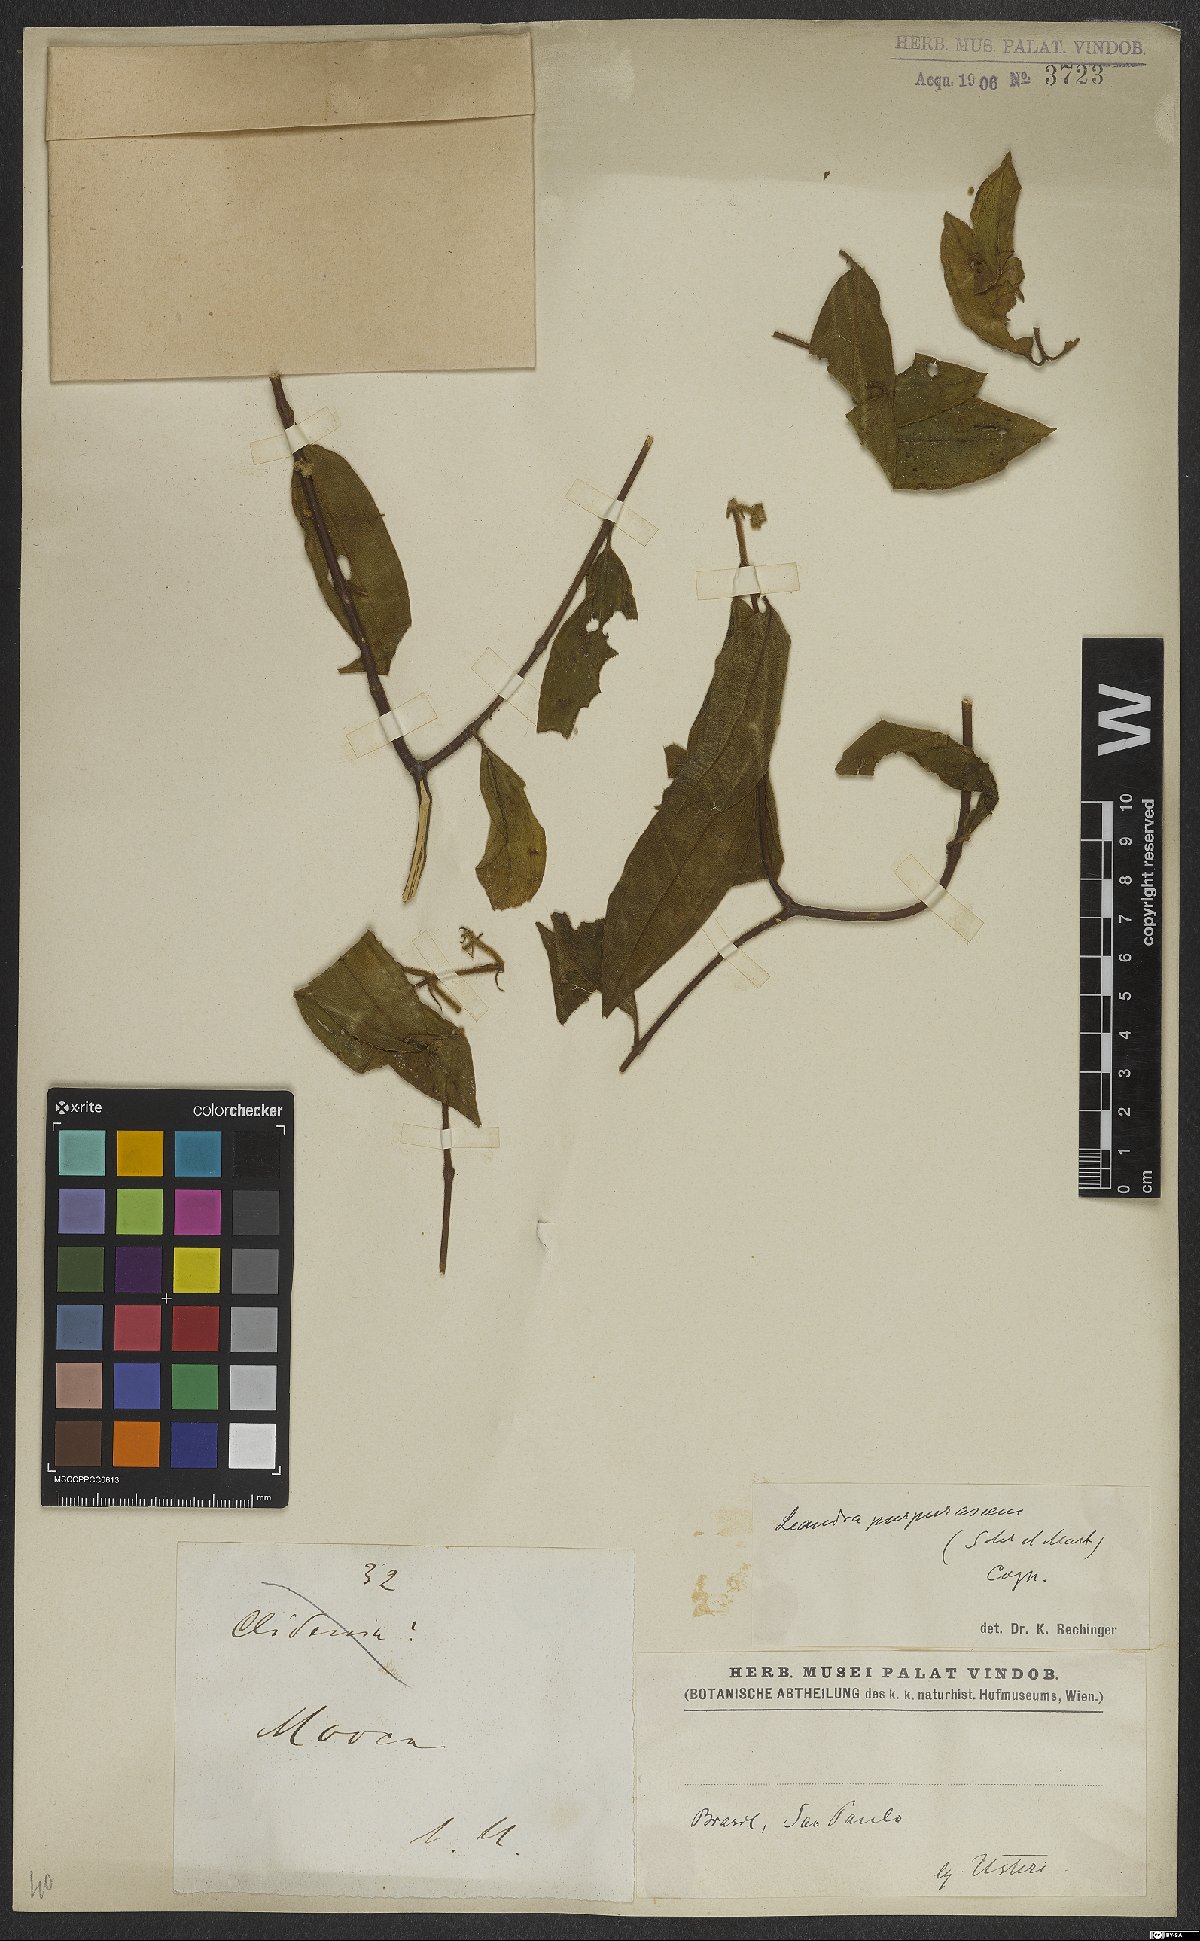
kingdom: Plantae
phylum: Tracheophyta
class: Magnoliopsida
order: Myrtales
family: Melastomataceae
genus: Miconia
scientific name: Miconia microstachya
